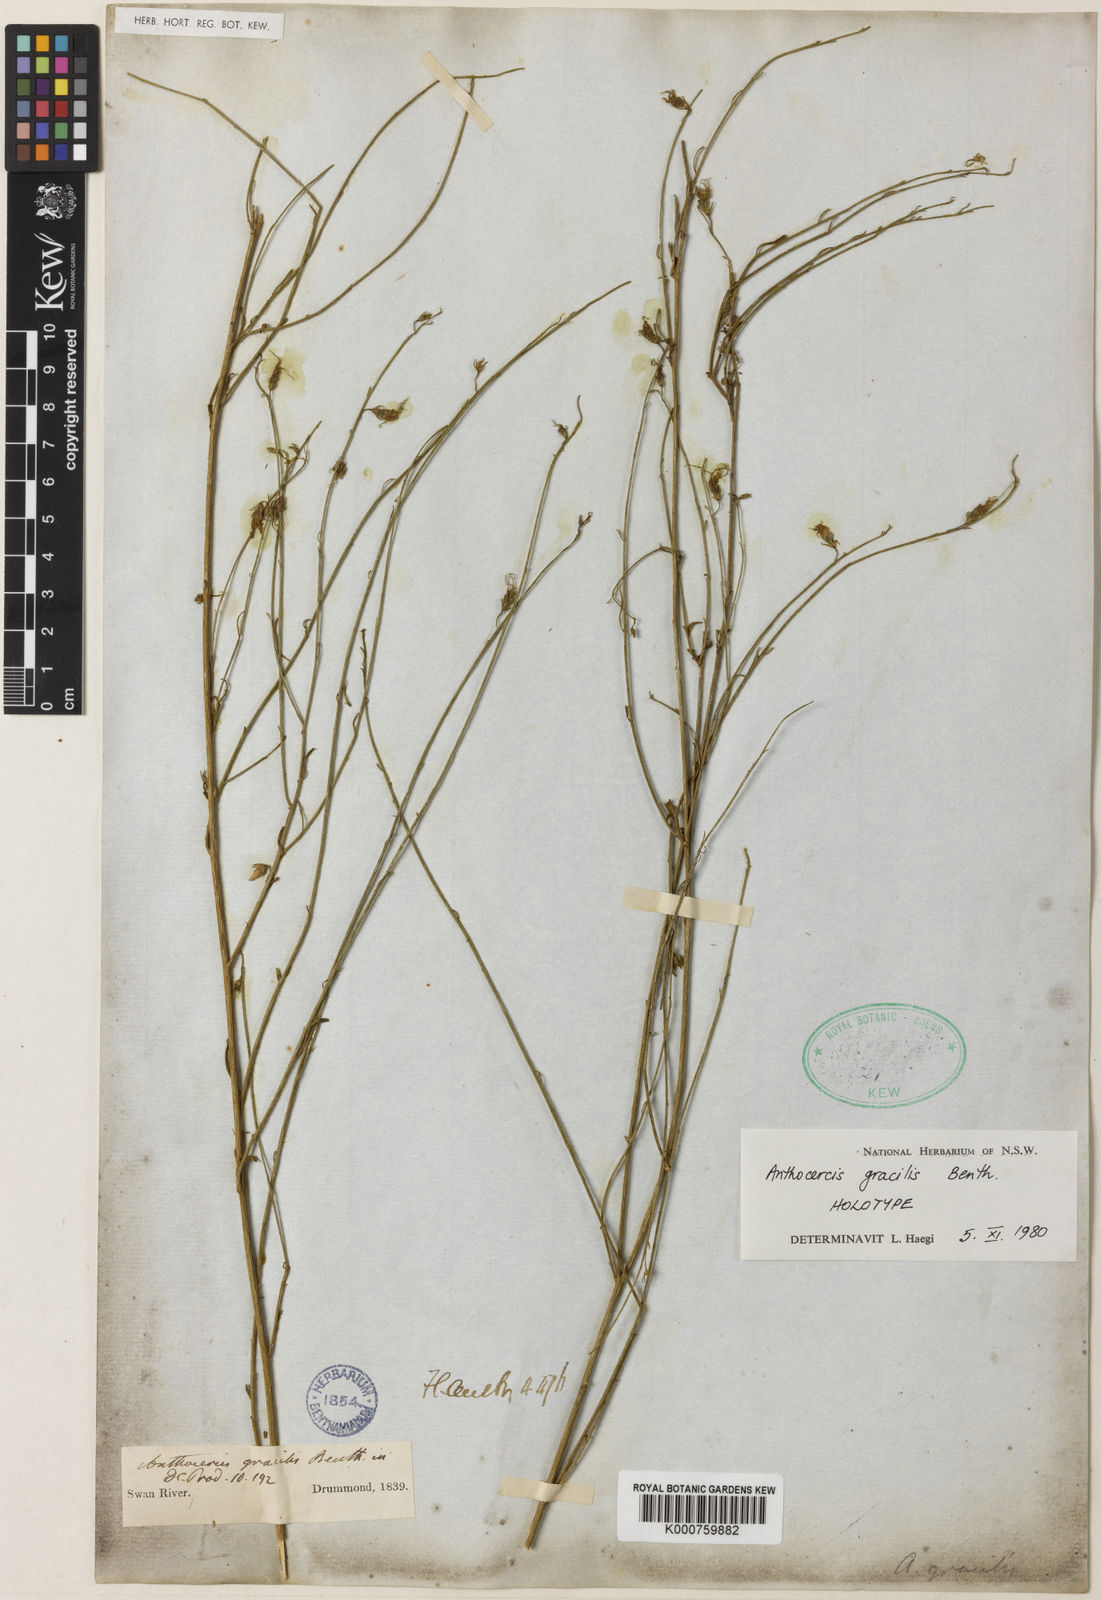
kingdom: Plantae
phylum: Tracheophyta
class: Magnoliopsida
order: Solanales
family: Solanaceae
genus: Anthocercis
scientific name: Anthocercis gracilis
